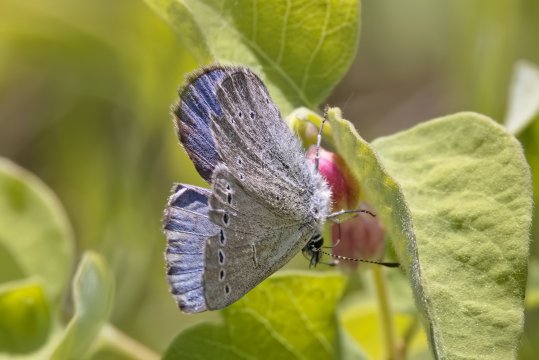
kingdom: Animalia
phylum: Arthropoda
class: Insecta
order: Lepidoptera
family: Lycaenidae
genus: Glaucopsyche
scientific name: Glaucopsyche lygdamus
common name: Silvery Blue
